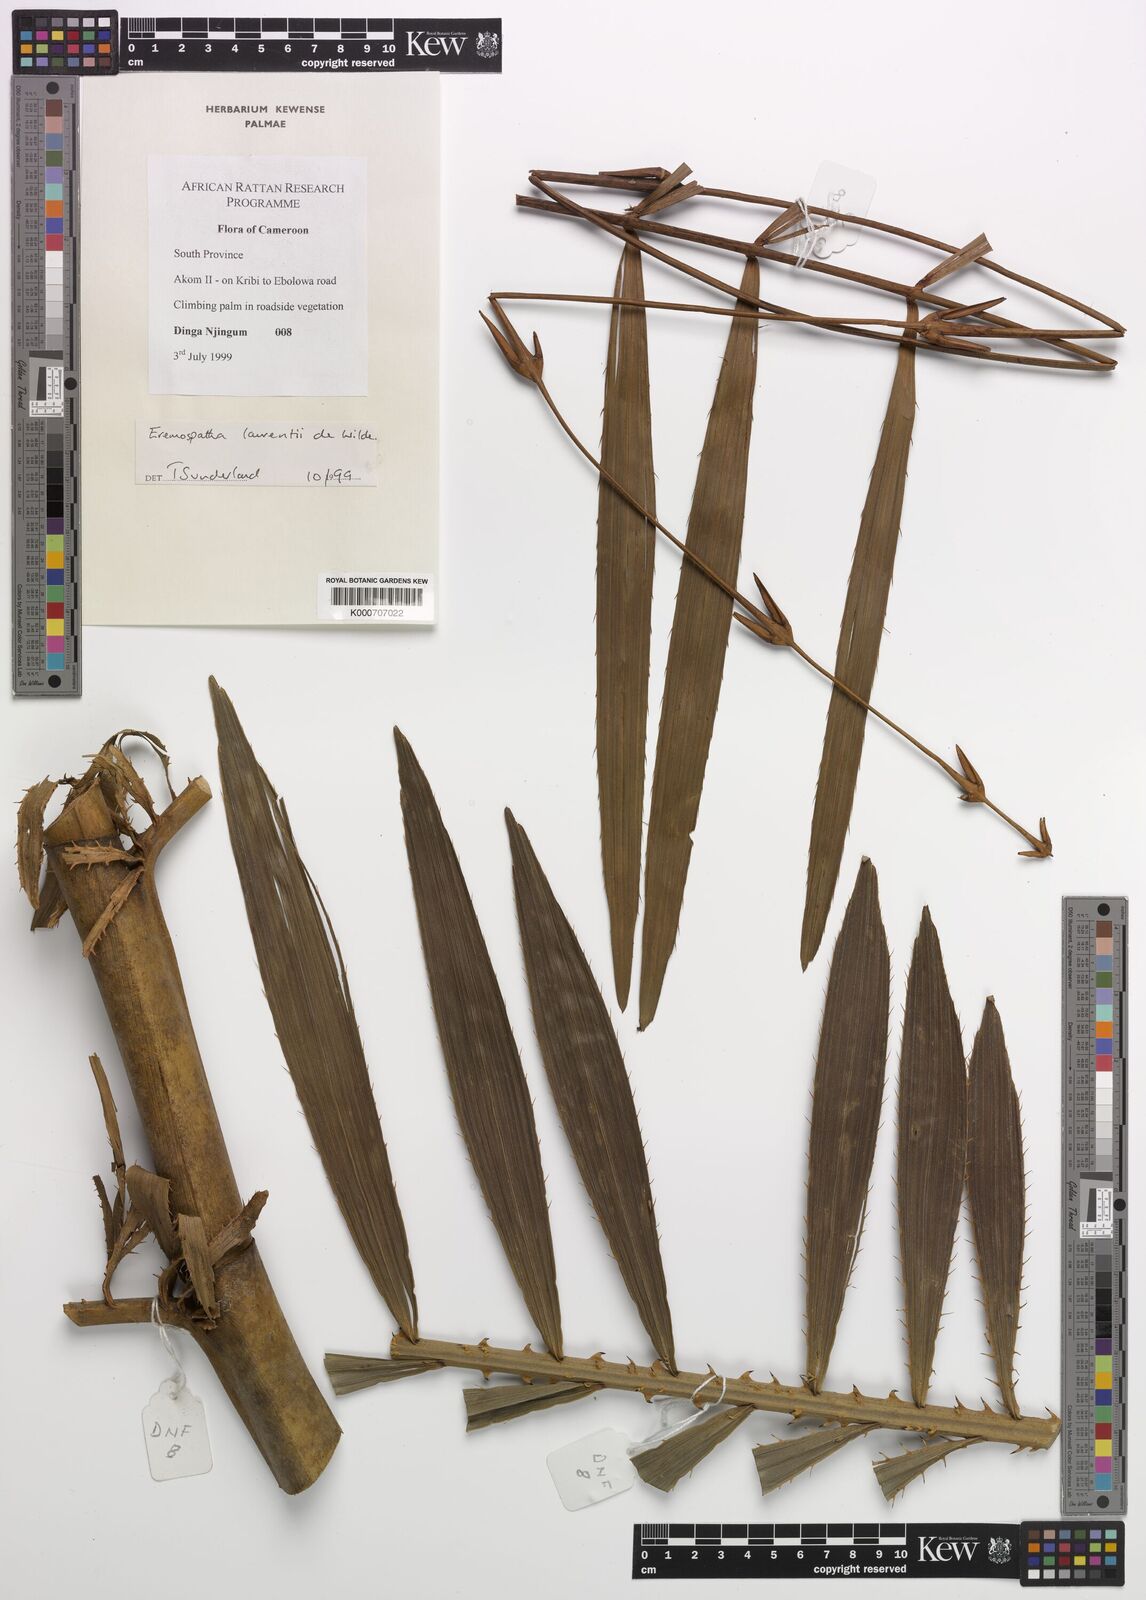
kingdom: Plantae
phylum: Tracheophyta
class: Liliopsida
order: Arecales
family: Arecaceae
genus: Eremospatha
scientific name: Eremospatha laurentii
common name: Rattan palm
